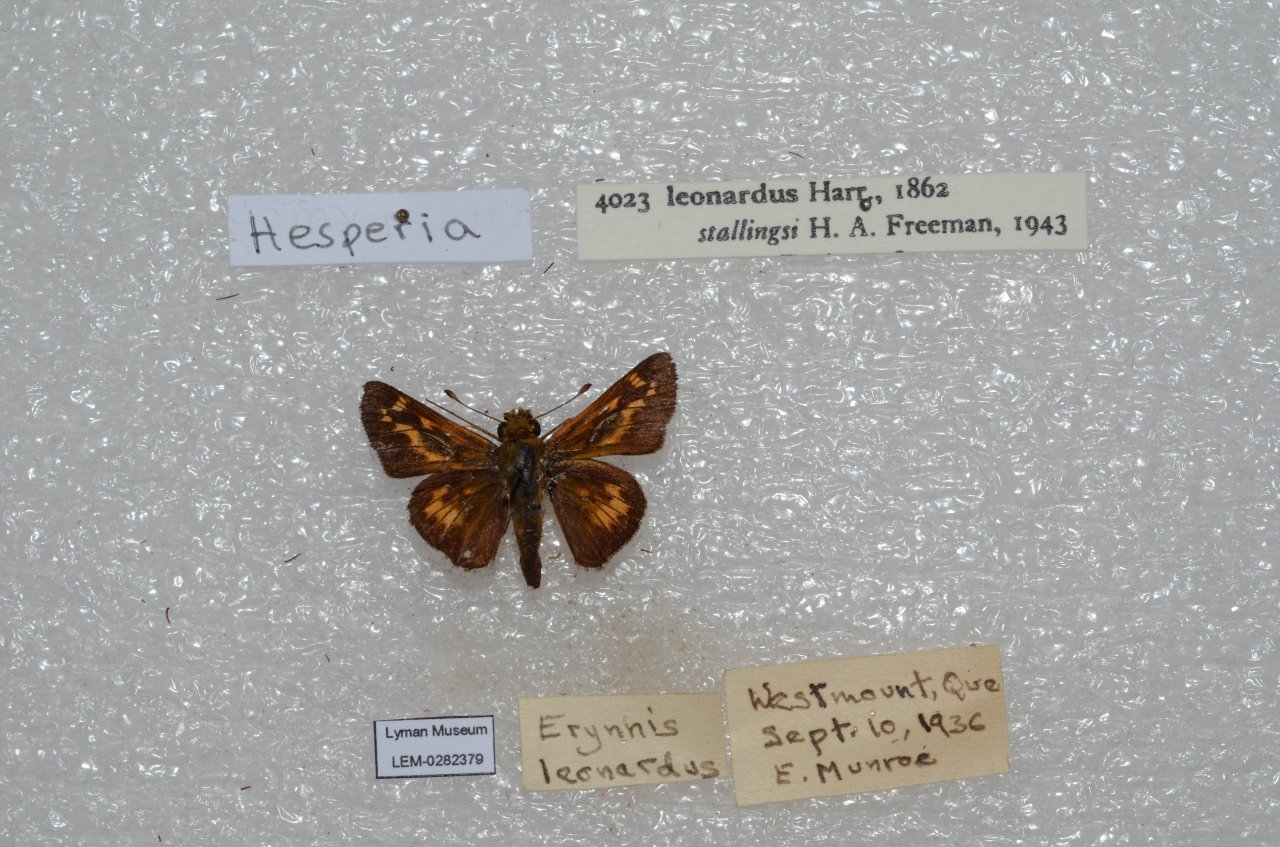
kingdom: Animalia
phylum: Arthropoda
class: Insecta
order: Lepidoptera
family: Hesperiidae
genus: Hesperia
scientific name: Hesperia leonardus
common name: Leonard's Skipper
